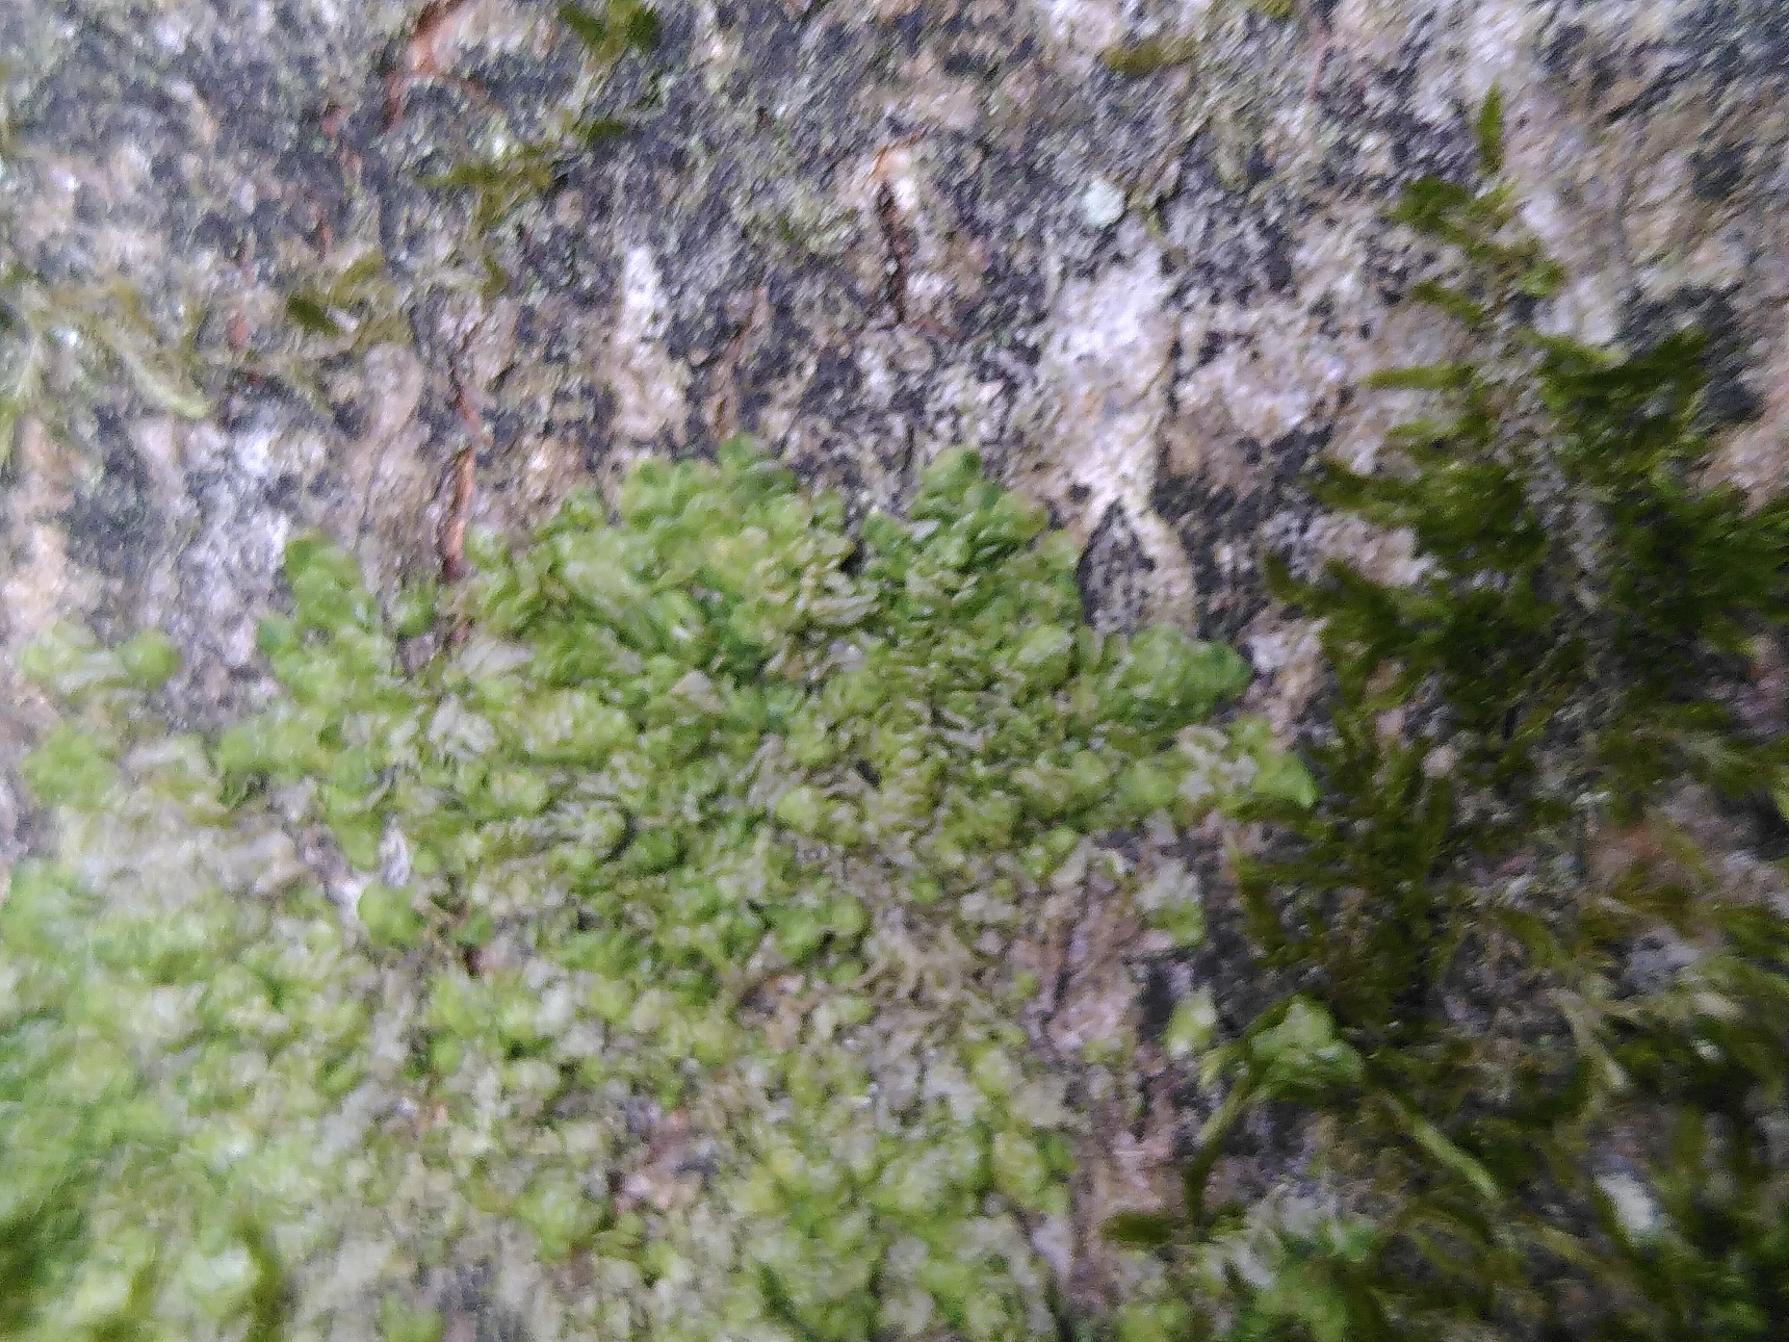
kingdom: Plantae
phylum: Marchantiophyta
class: Jungermanniopsida
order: Porellales
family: Radulaceae
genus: Radula
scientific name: Radula complanata
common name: Almindelig spartelmos
